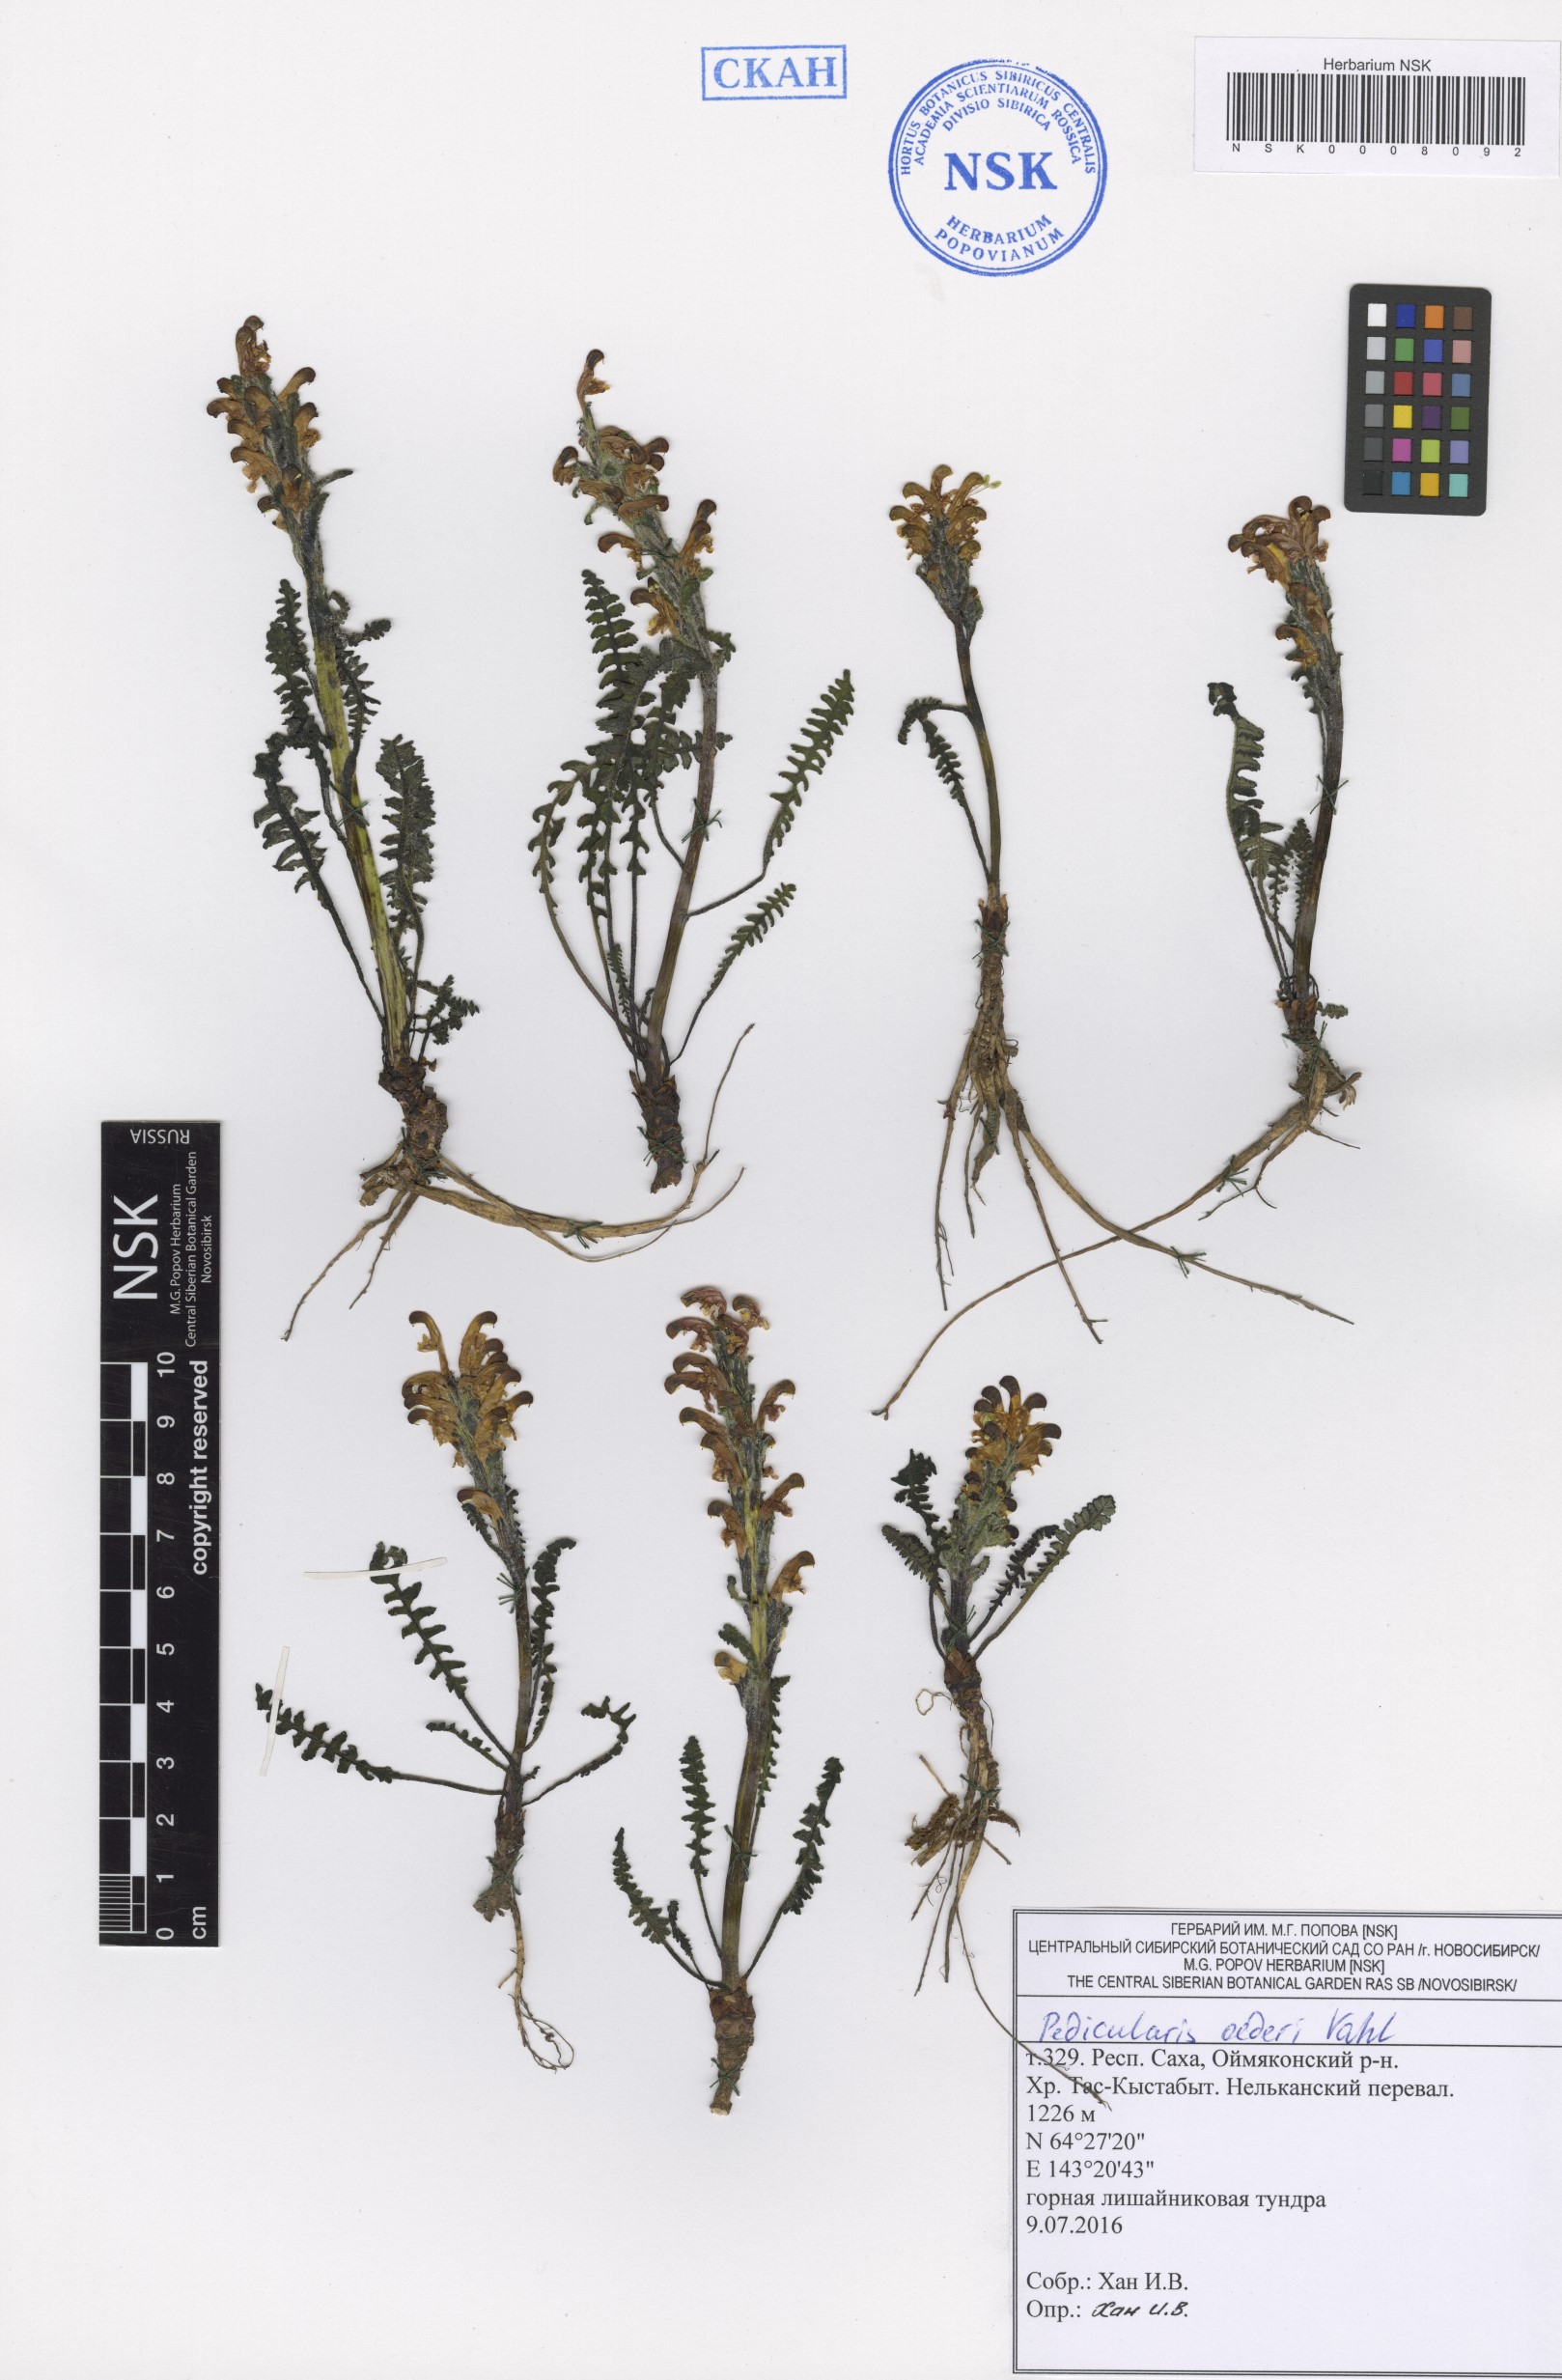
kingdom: Plantae
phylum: Tracheophyta
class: Magnoliopsida
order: Lamiales
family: Orobanchaceae
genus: Pedicularis
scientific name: Pedicularis oederi
